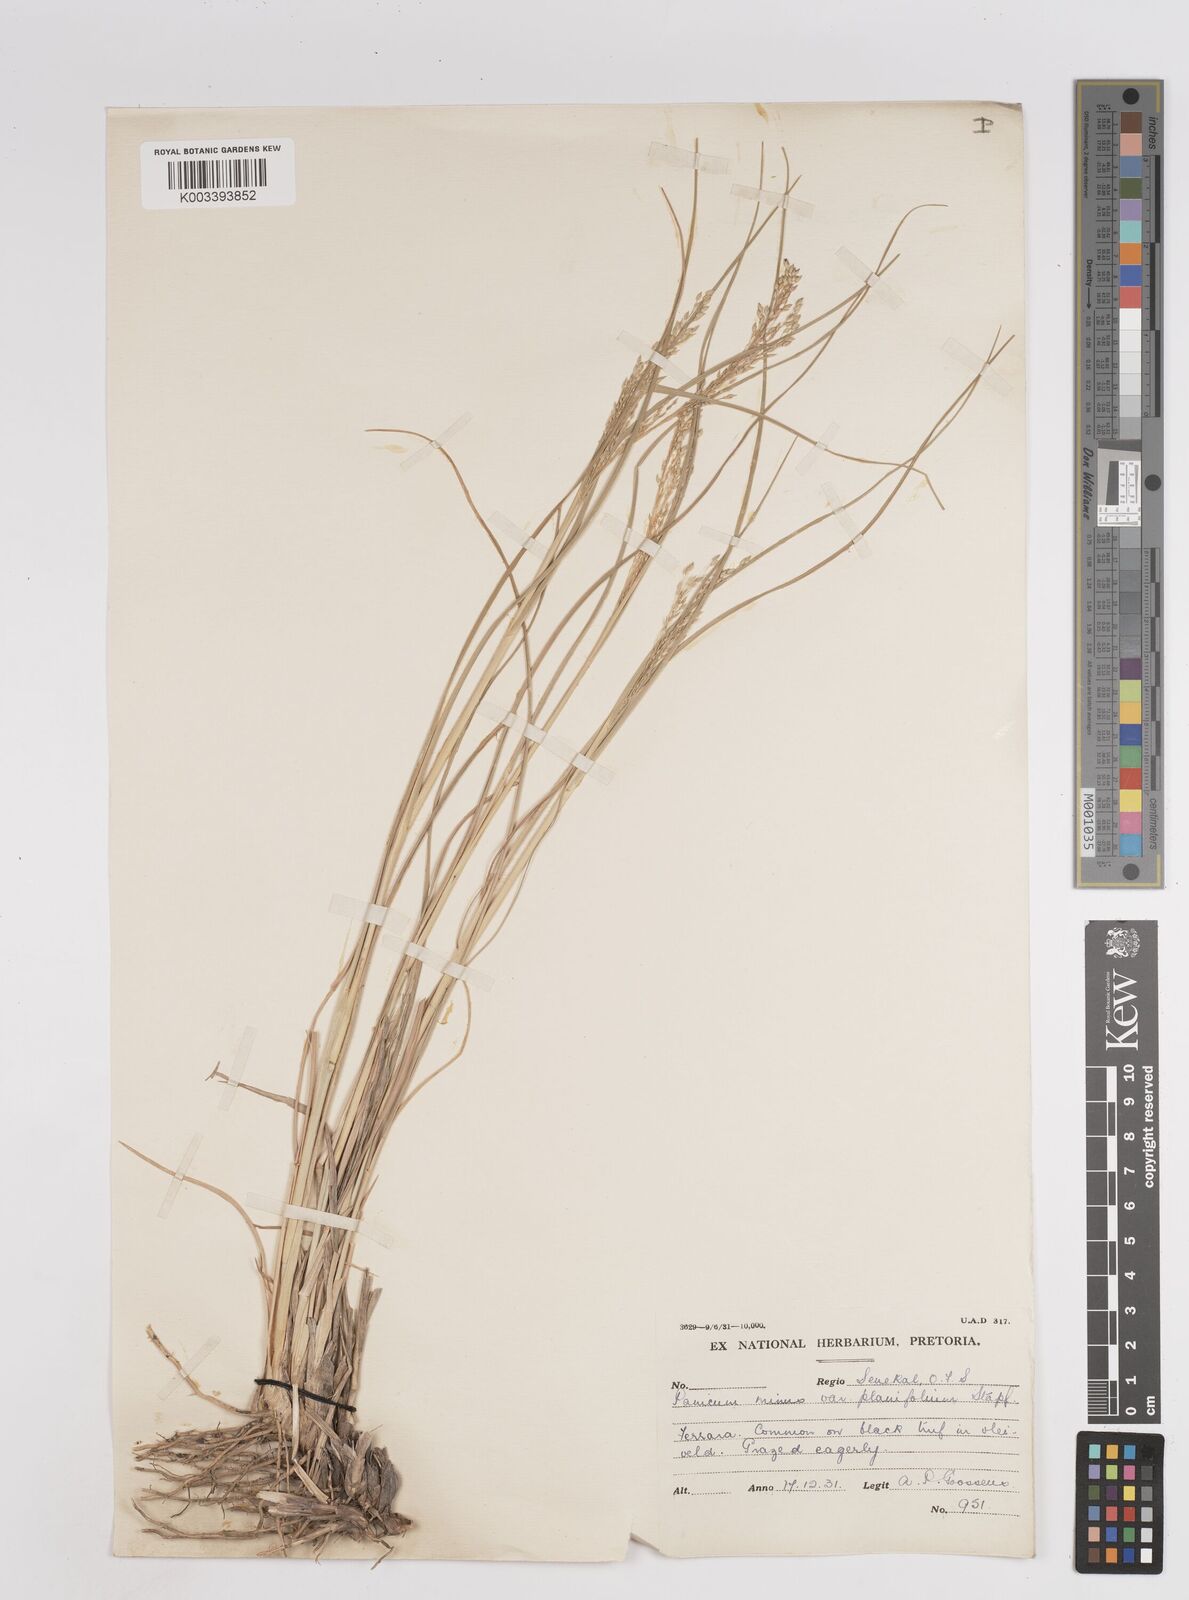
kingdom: Plantae
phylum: Tracheophyta
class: Liliopsida
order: Poales
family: Poaceae
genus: Panicum
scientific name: Panicum stapfianum
